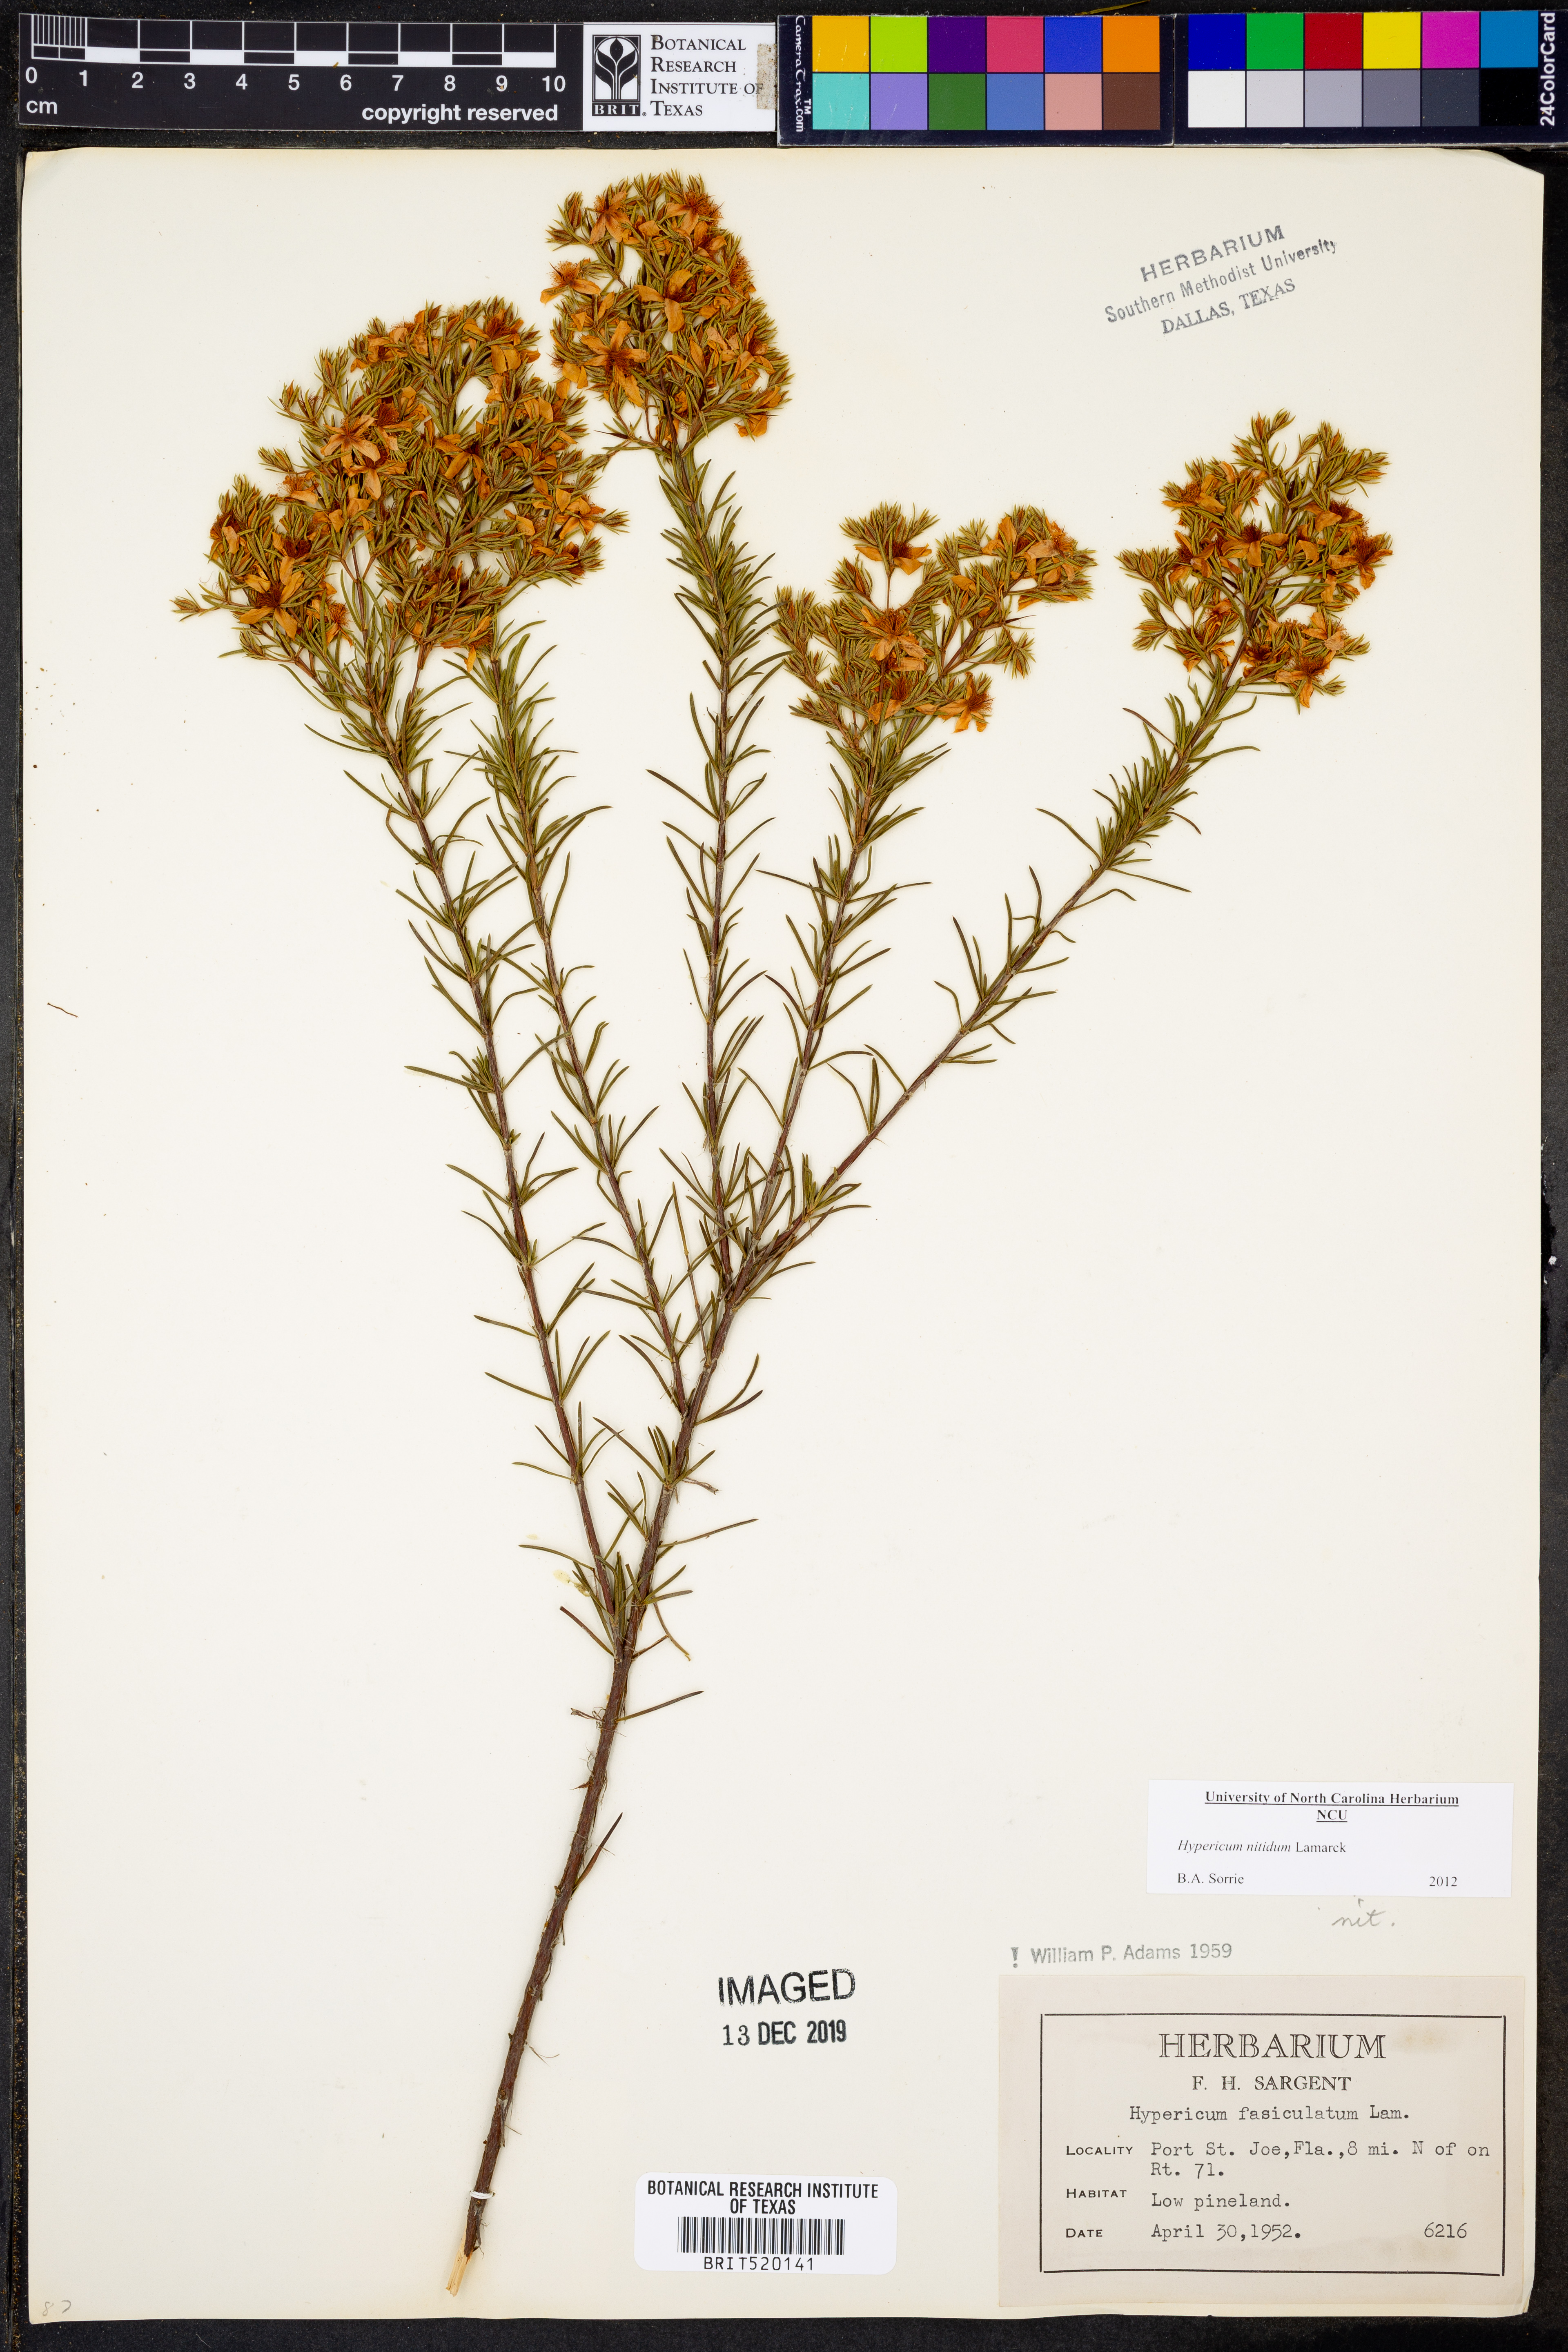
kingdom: Plantae
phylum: Tracheophyta
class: Magnoliopsida
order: Malpighiales
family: Hypericaceae
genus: Hypericum
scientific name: Hypericum nitidum
